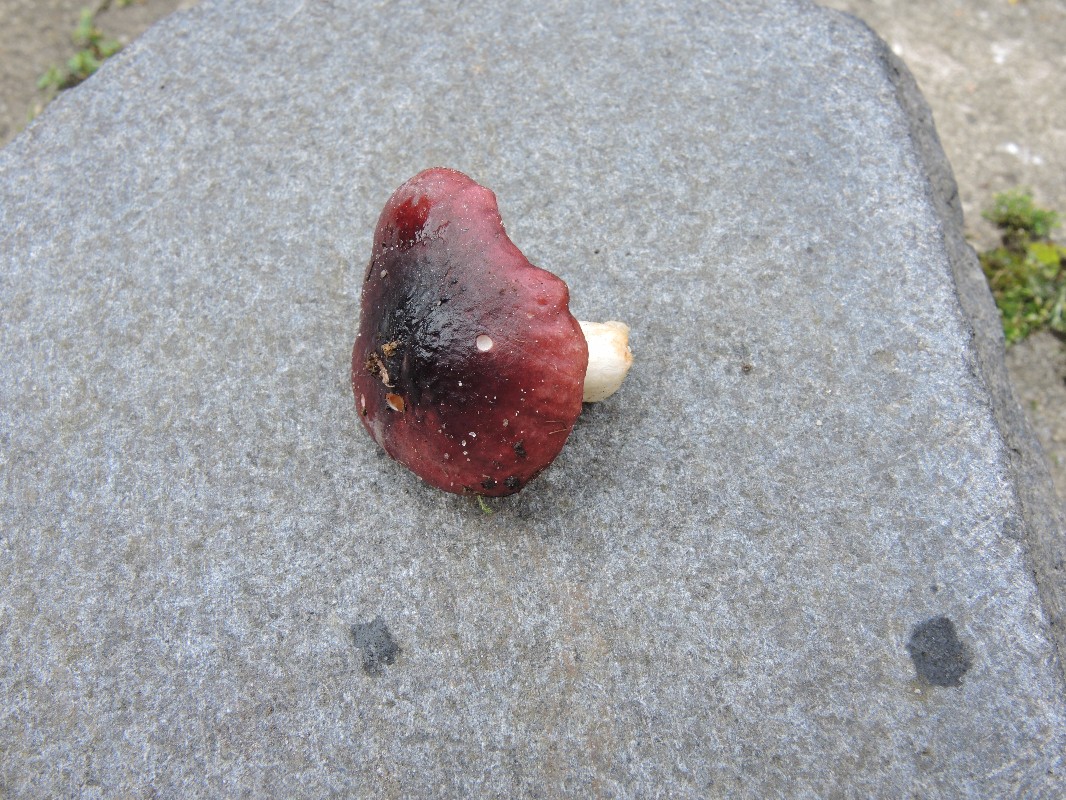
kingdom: Fungi
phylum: Basidiomycota
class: Agaricomycetes
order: Russulales
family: Russulaceae
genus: Russula
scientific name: Russula subrubens
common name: pile-skørhat
